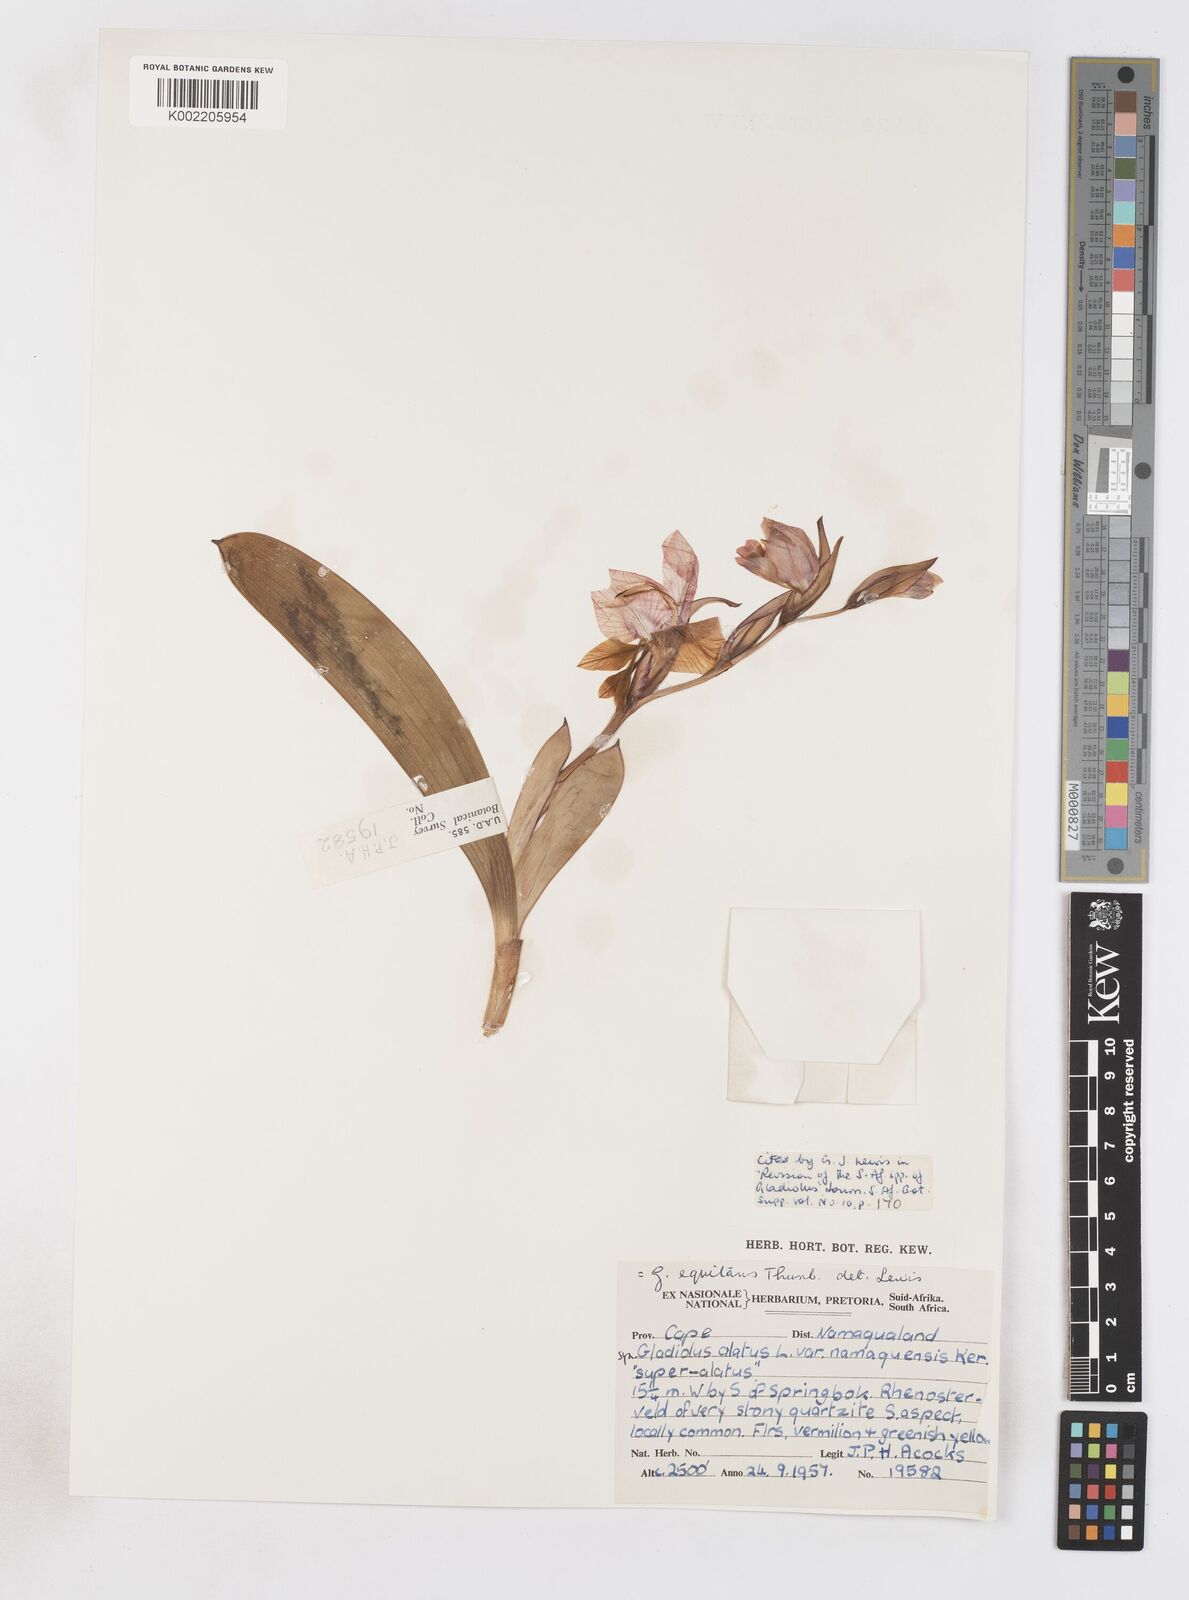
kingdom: Plantae
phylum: Tracheophyta
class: Liliopsida
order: Asparagales
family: Iridaceae
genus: Gladiolus
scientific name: Gladiolus equitans
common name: Large red kalkoentjie
